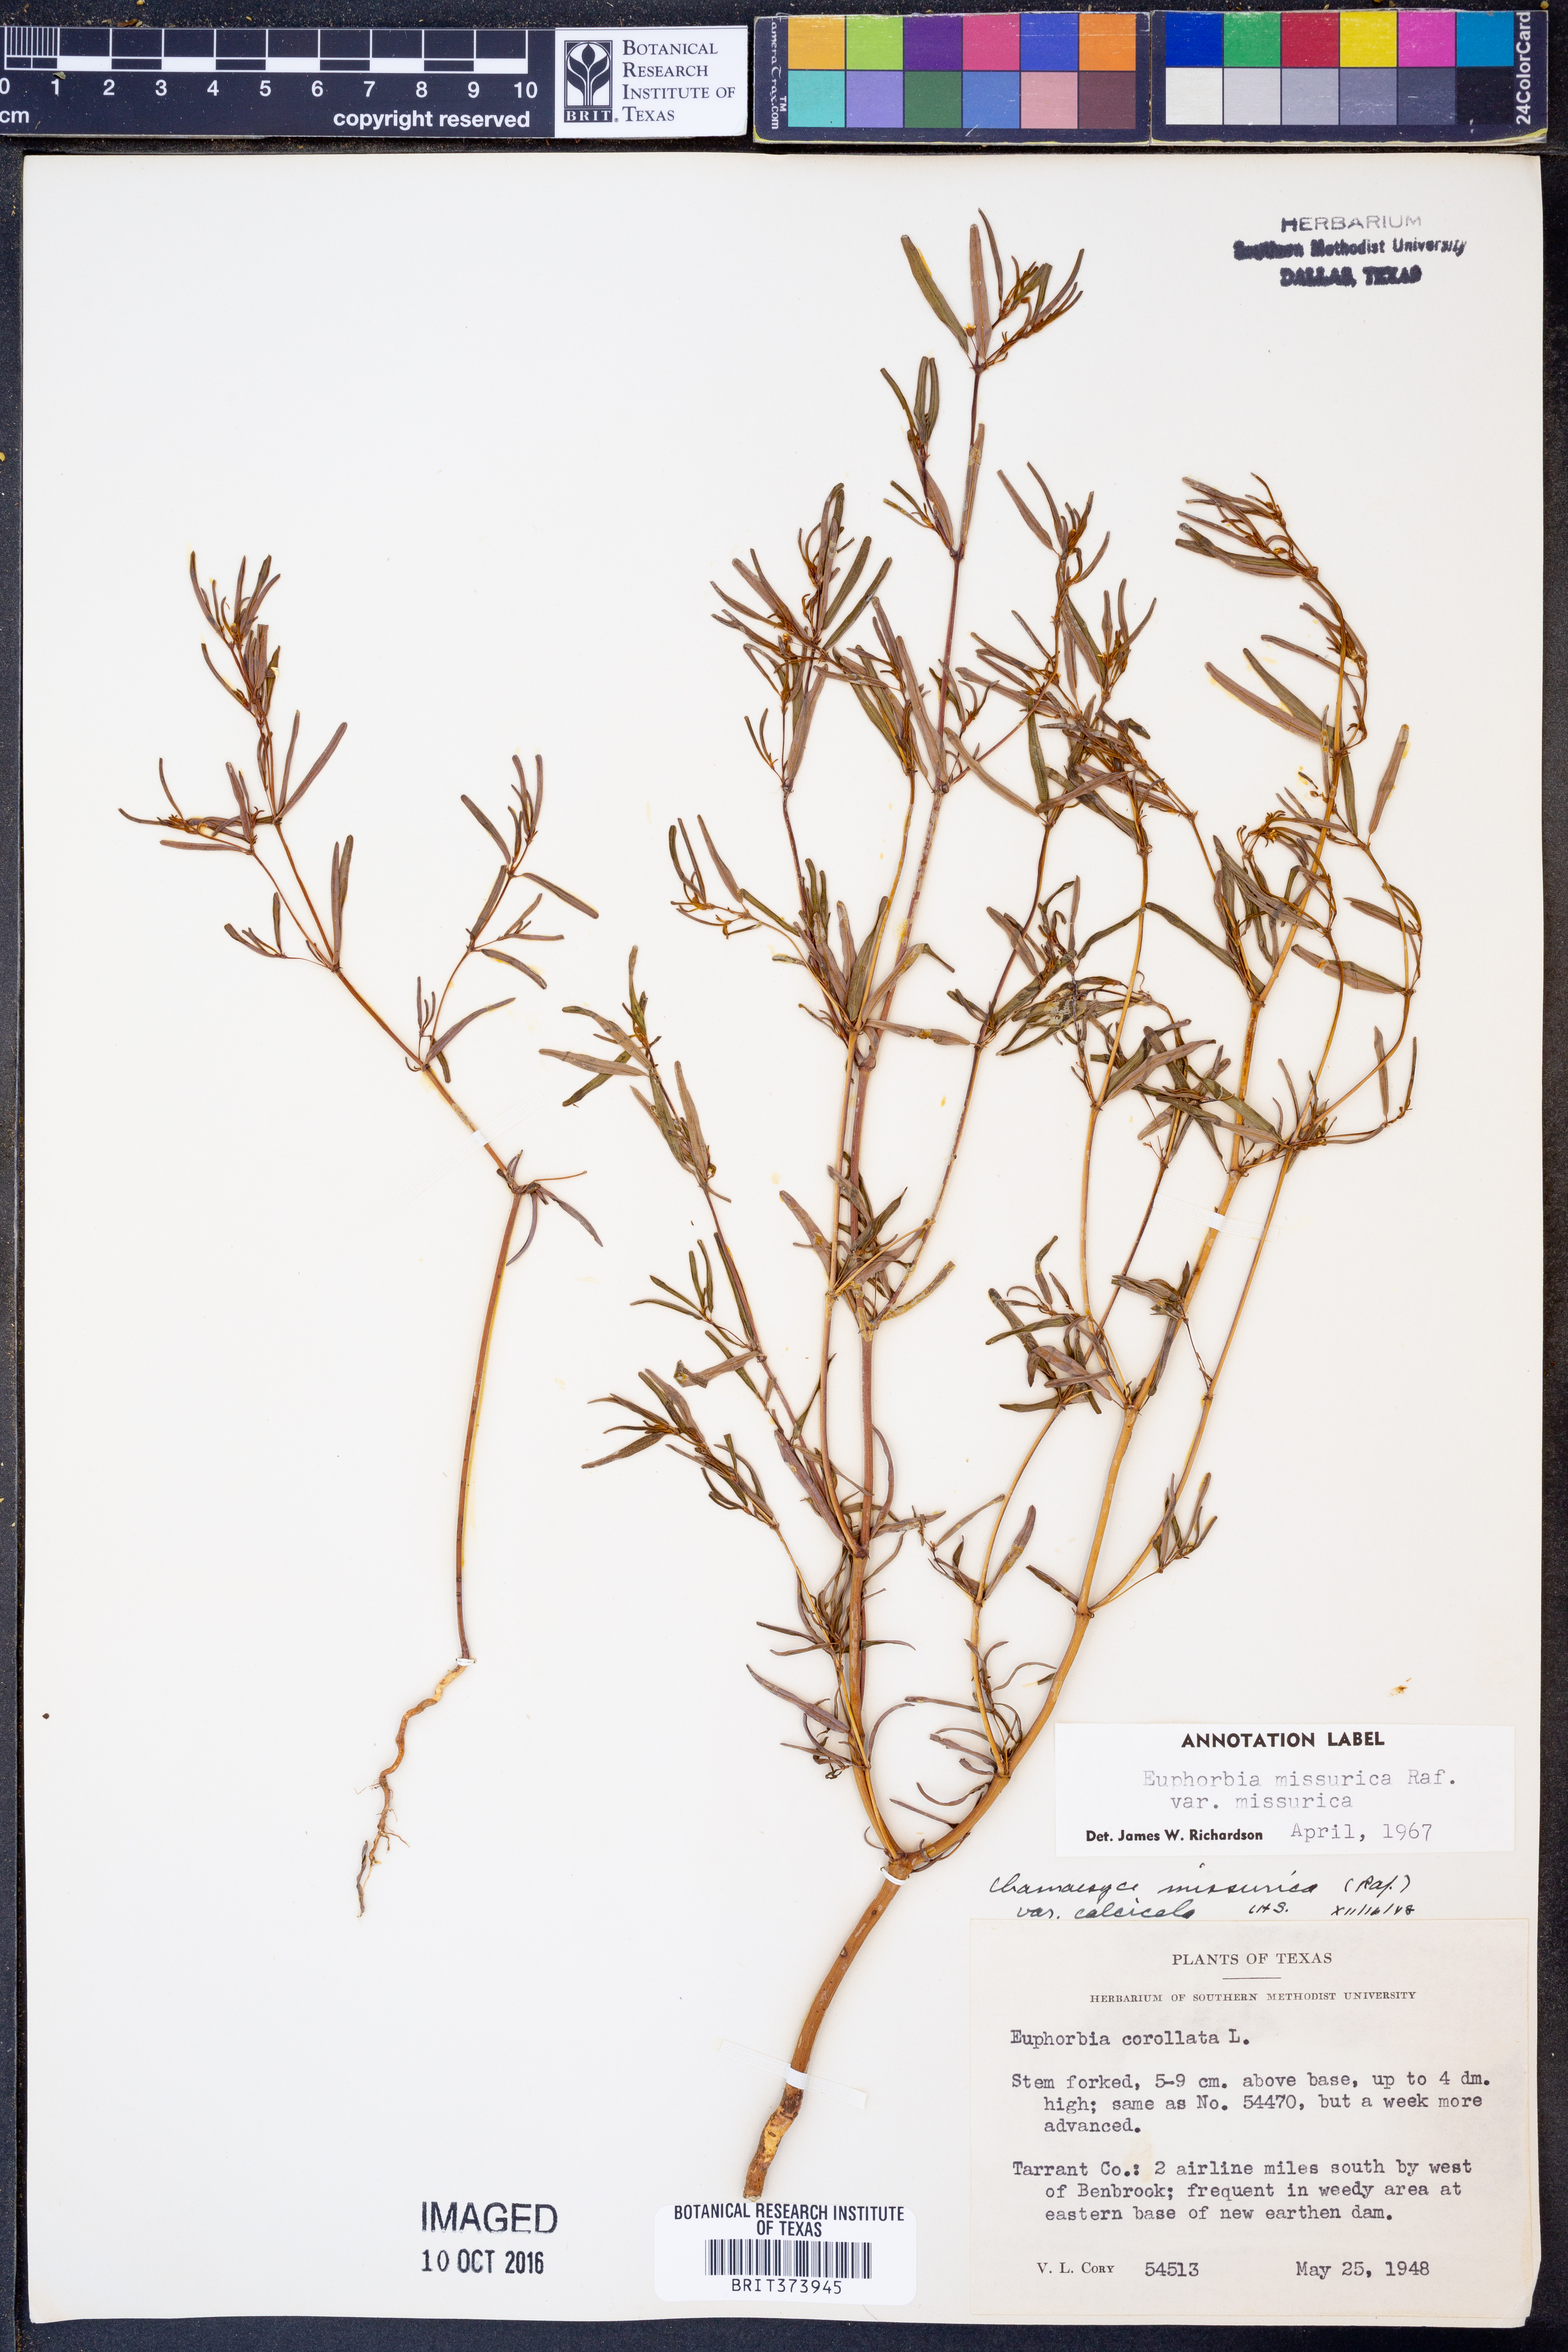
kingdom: Plantae
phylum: Tracheophyta
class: Magnoliopsida
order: Malpighiales
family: Euphorbiaceae
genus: Euphorbia
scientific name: Euphorbia missurica
